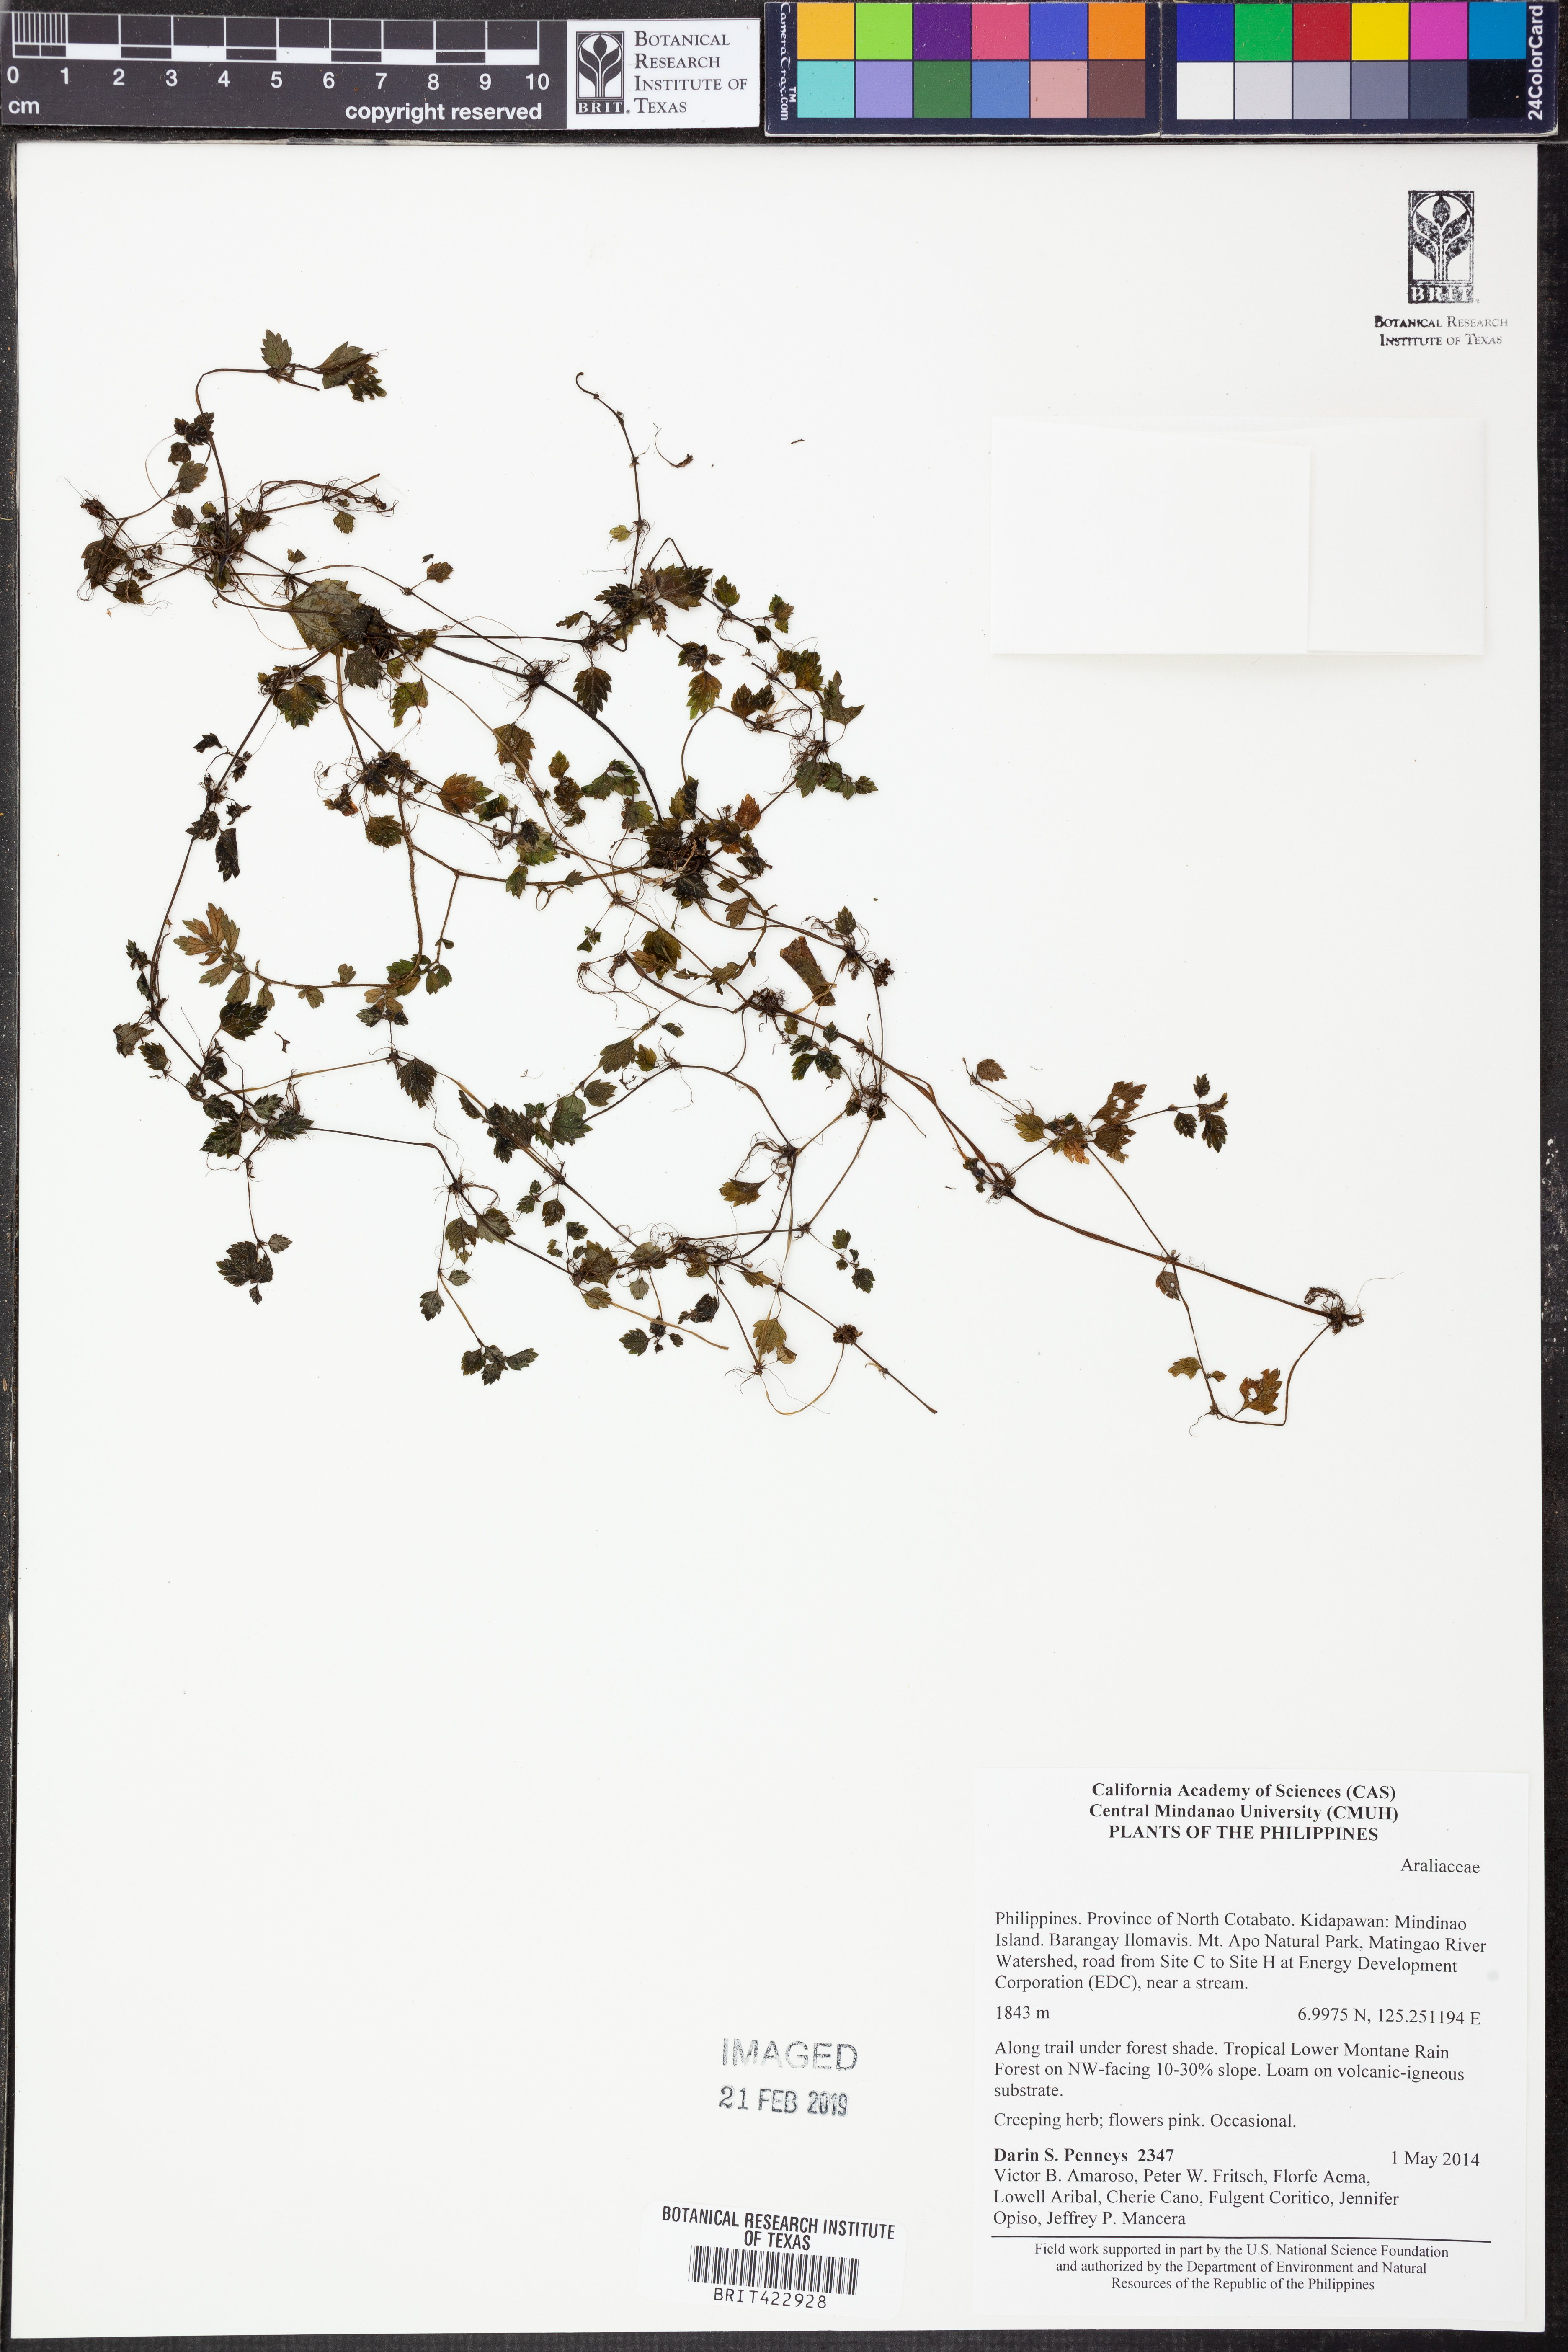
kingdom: Plantae
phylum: Tracheophyta
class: Magnoliopsida
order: Apiales
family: Araliaceae
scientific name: Araliaceae
